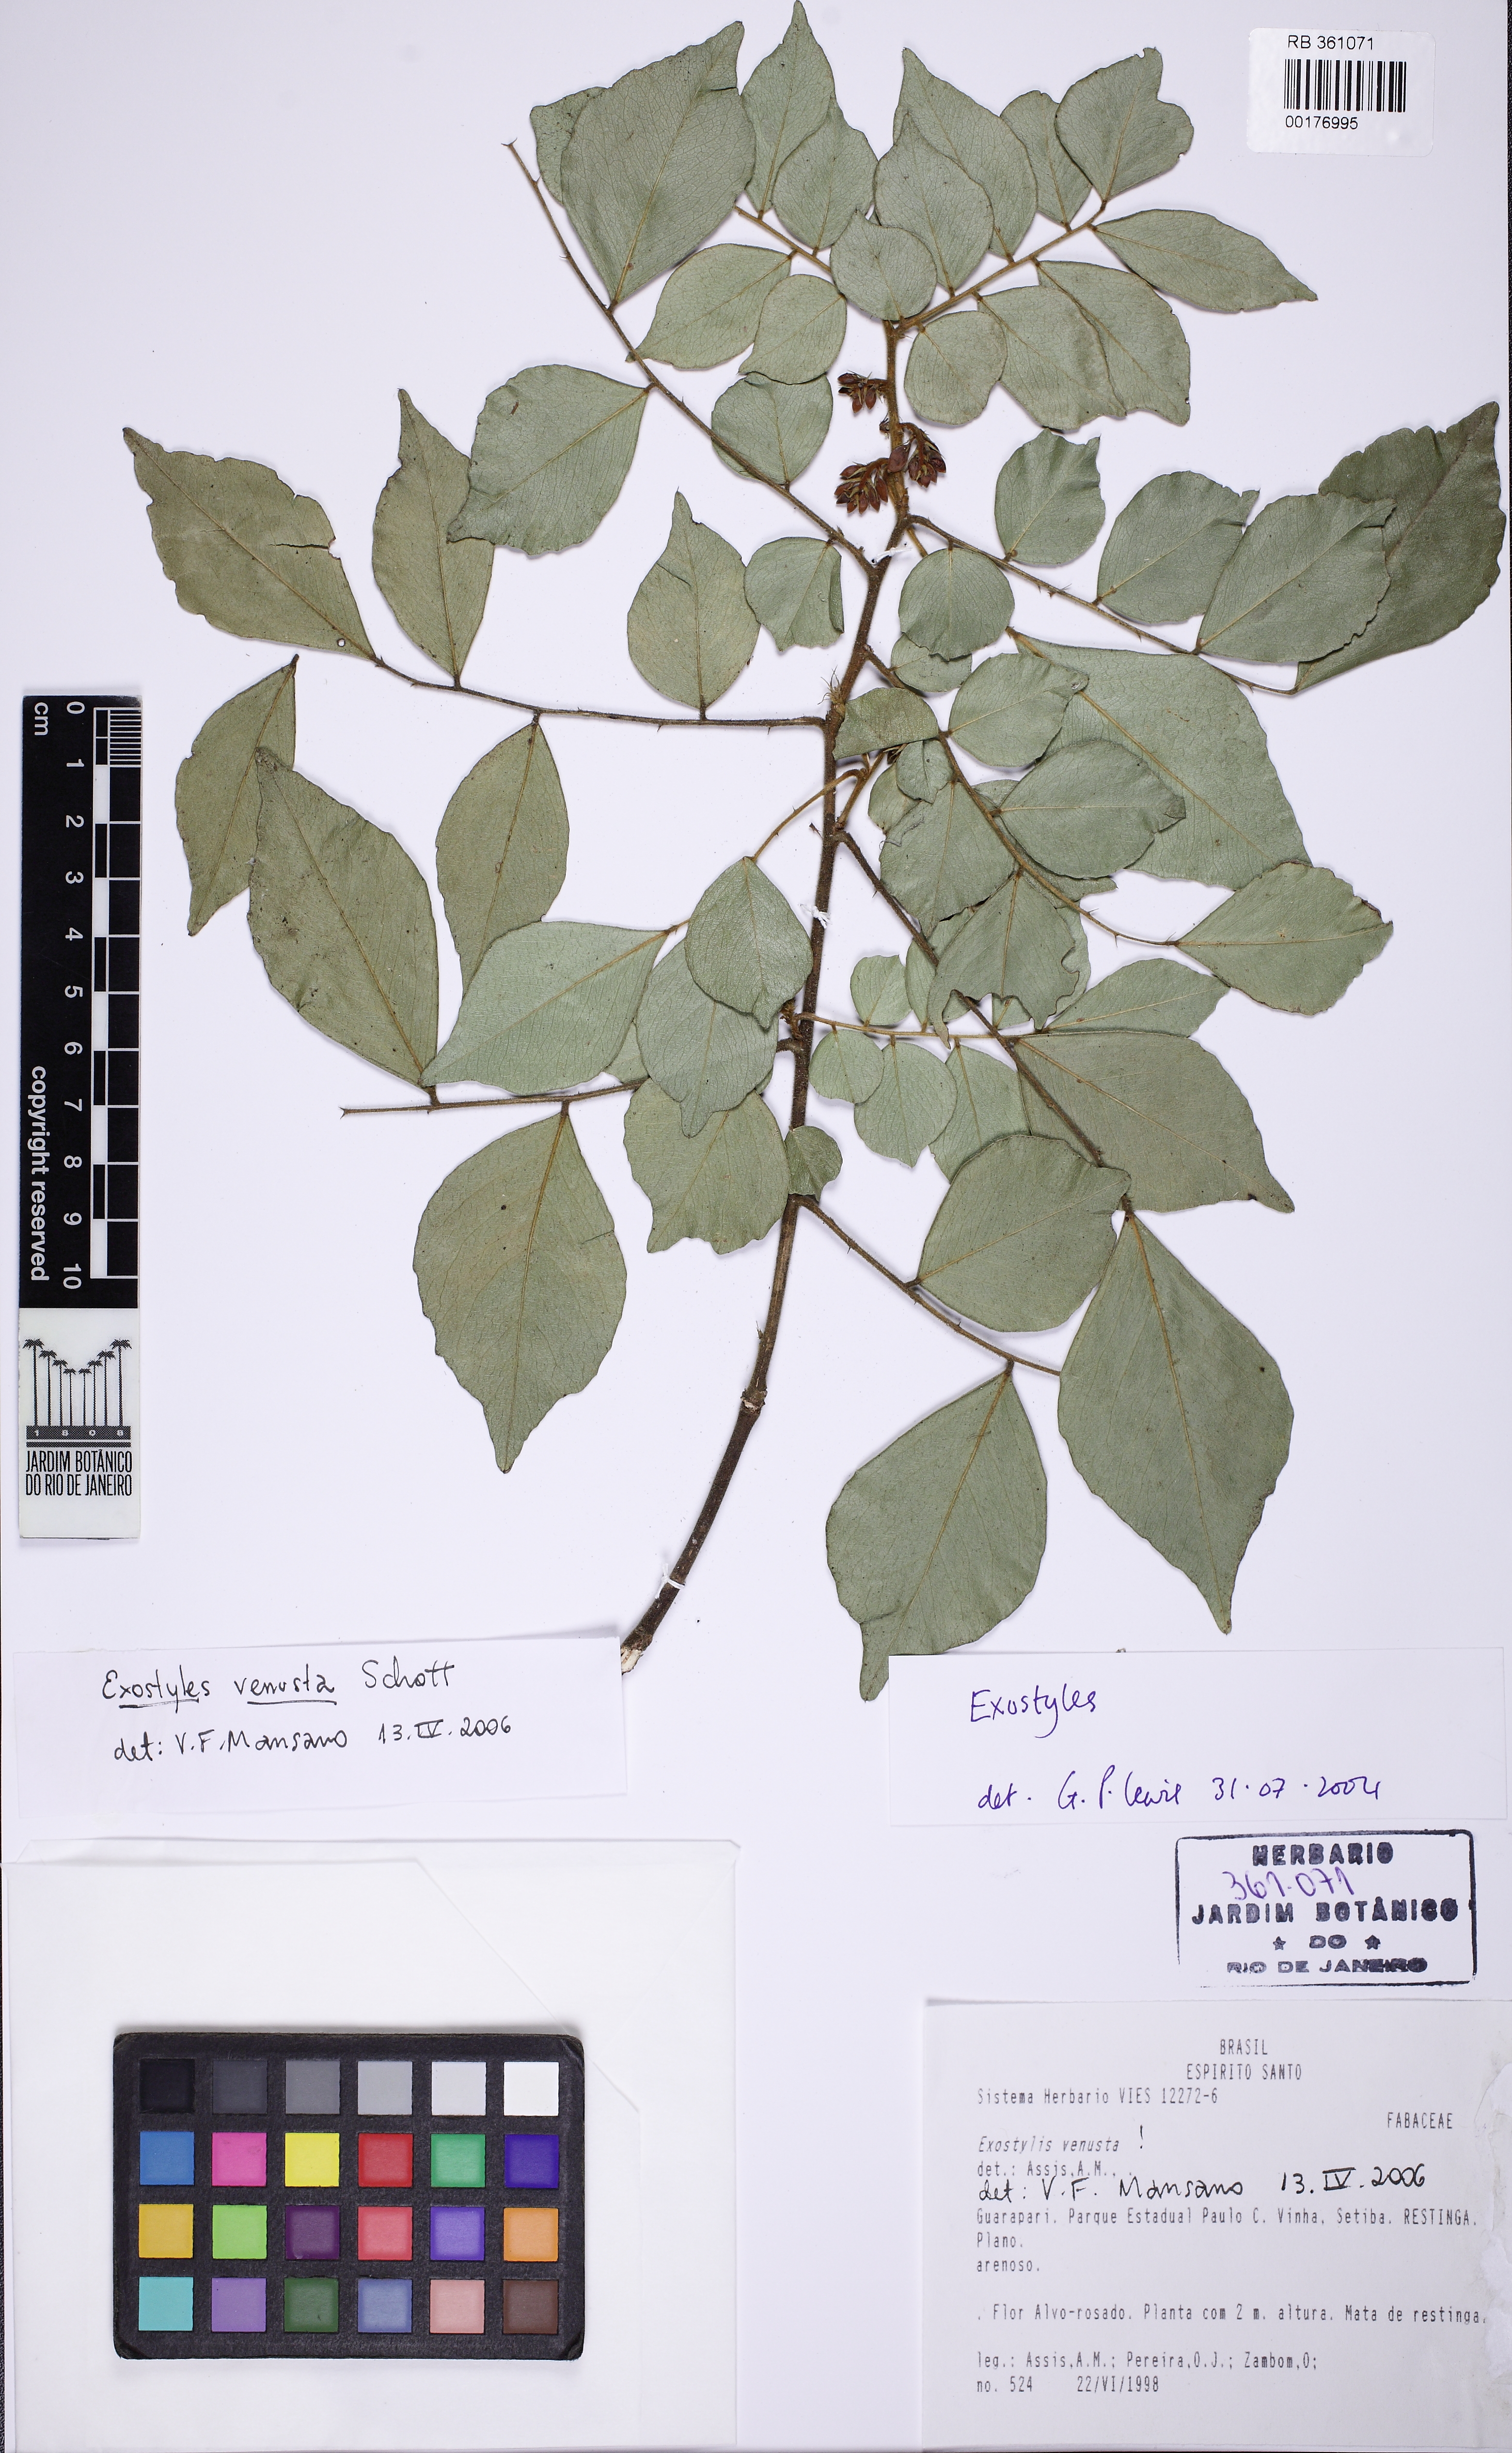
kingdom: Plantae
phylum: Tracheophyta
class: Magnoliopsida
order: Fabales
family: Fabaceae
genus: Exostyles
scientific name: Exostyles venusta
